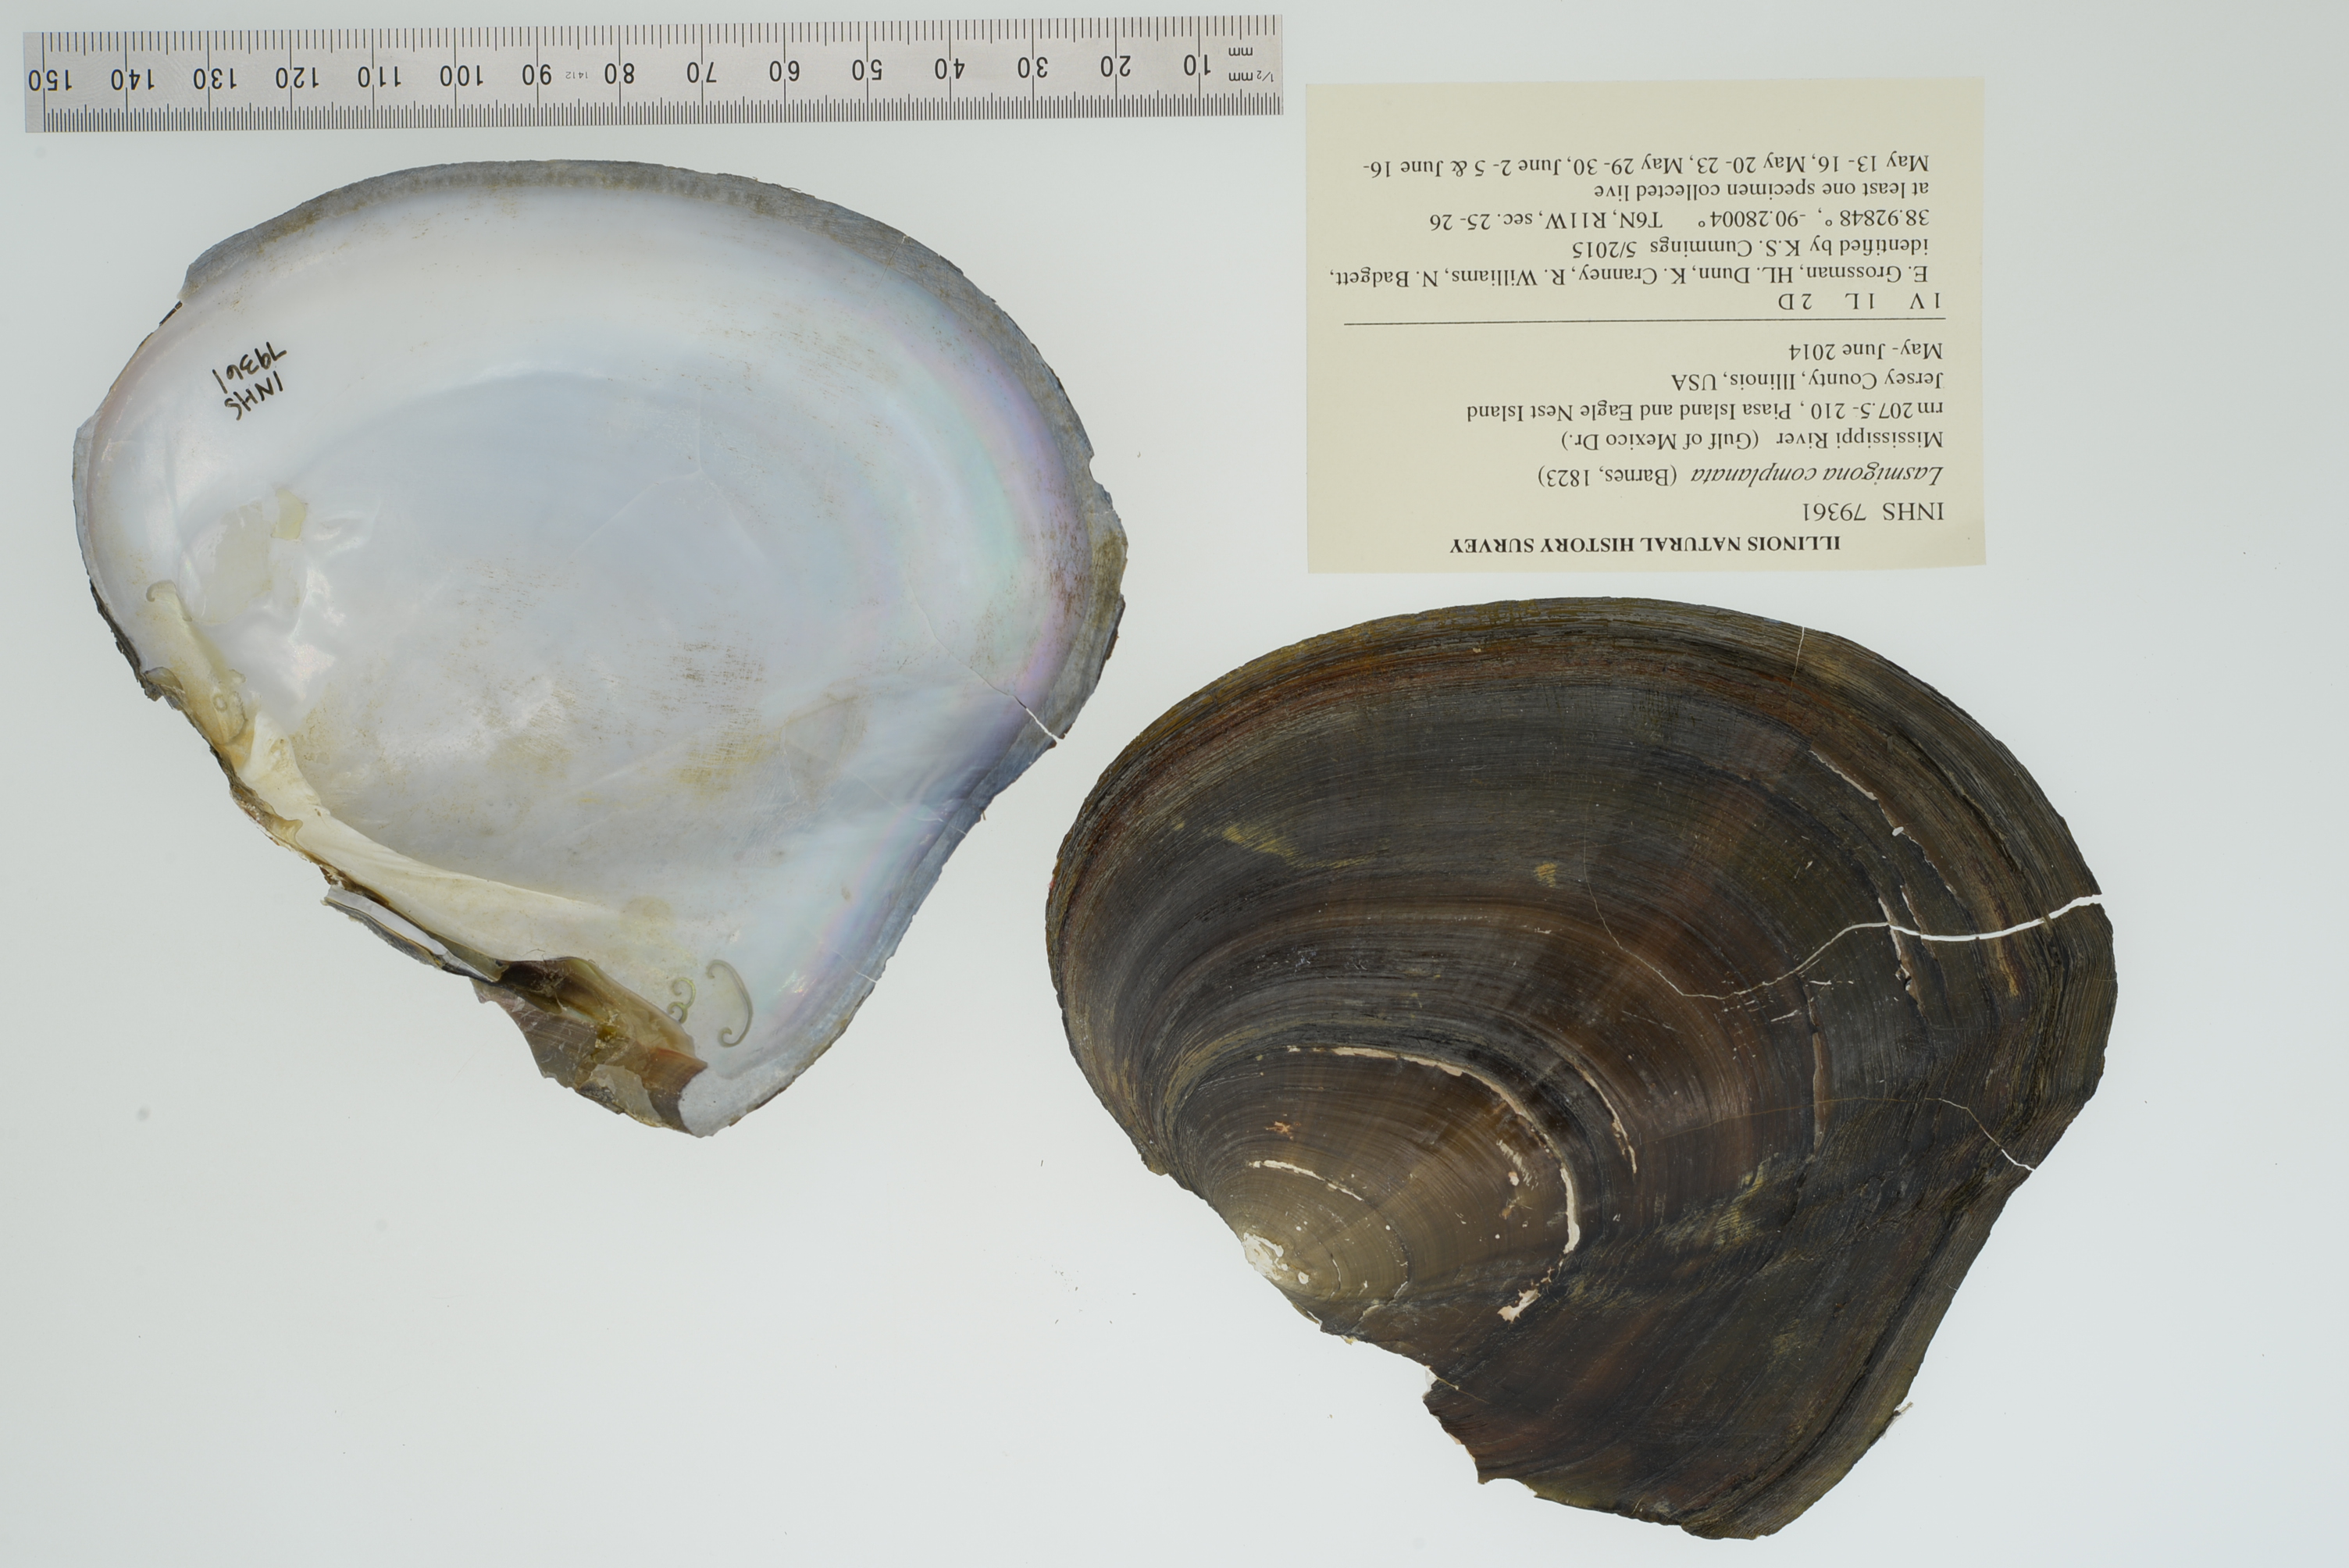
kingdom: Animalia
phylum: Mollusca
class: Bivalvia
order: Unionida
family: Unionidae
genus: Lasmigona
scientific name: Lasmigona complanata
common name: White heelsplitter
